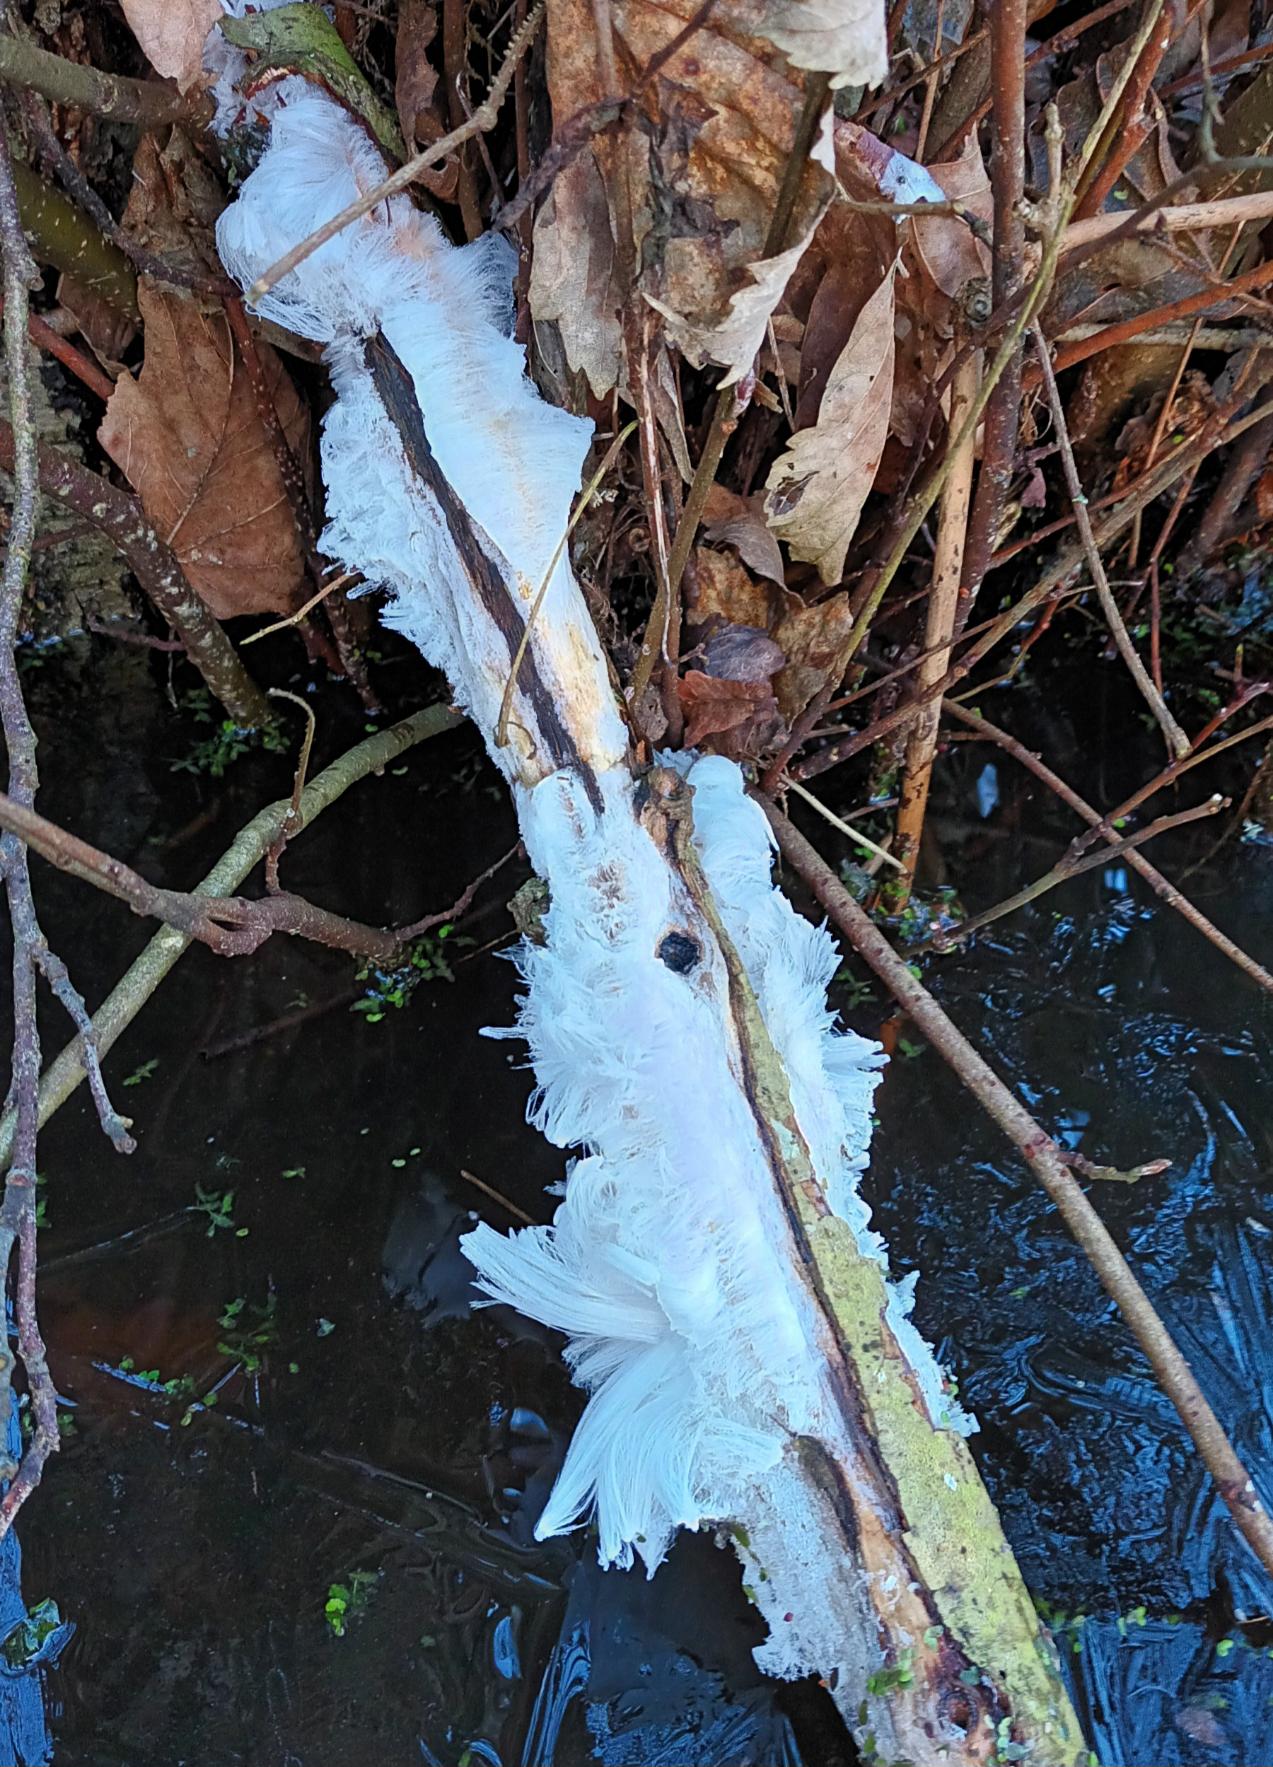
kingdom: Fungi
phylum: Basidiomycota
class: Tremellomycetes
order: Tremellales
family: Exidiaceae
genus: Exidiopsis
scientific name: Exidiopsis effusa
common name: Smuk bævrehinde
